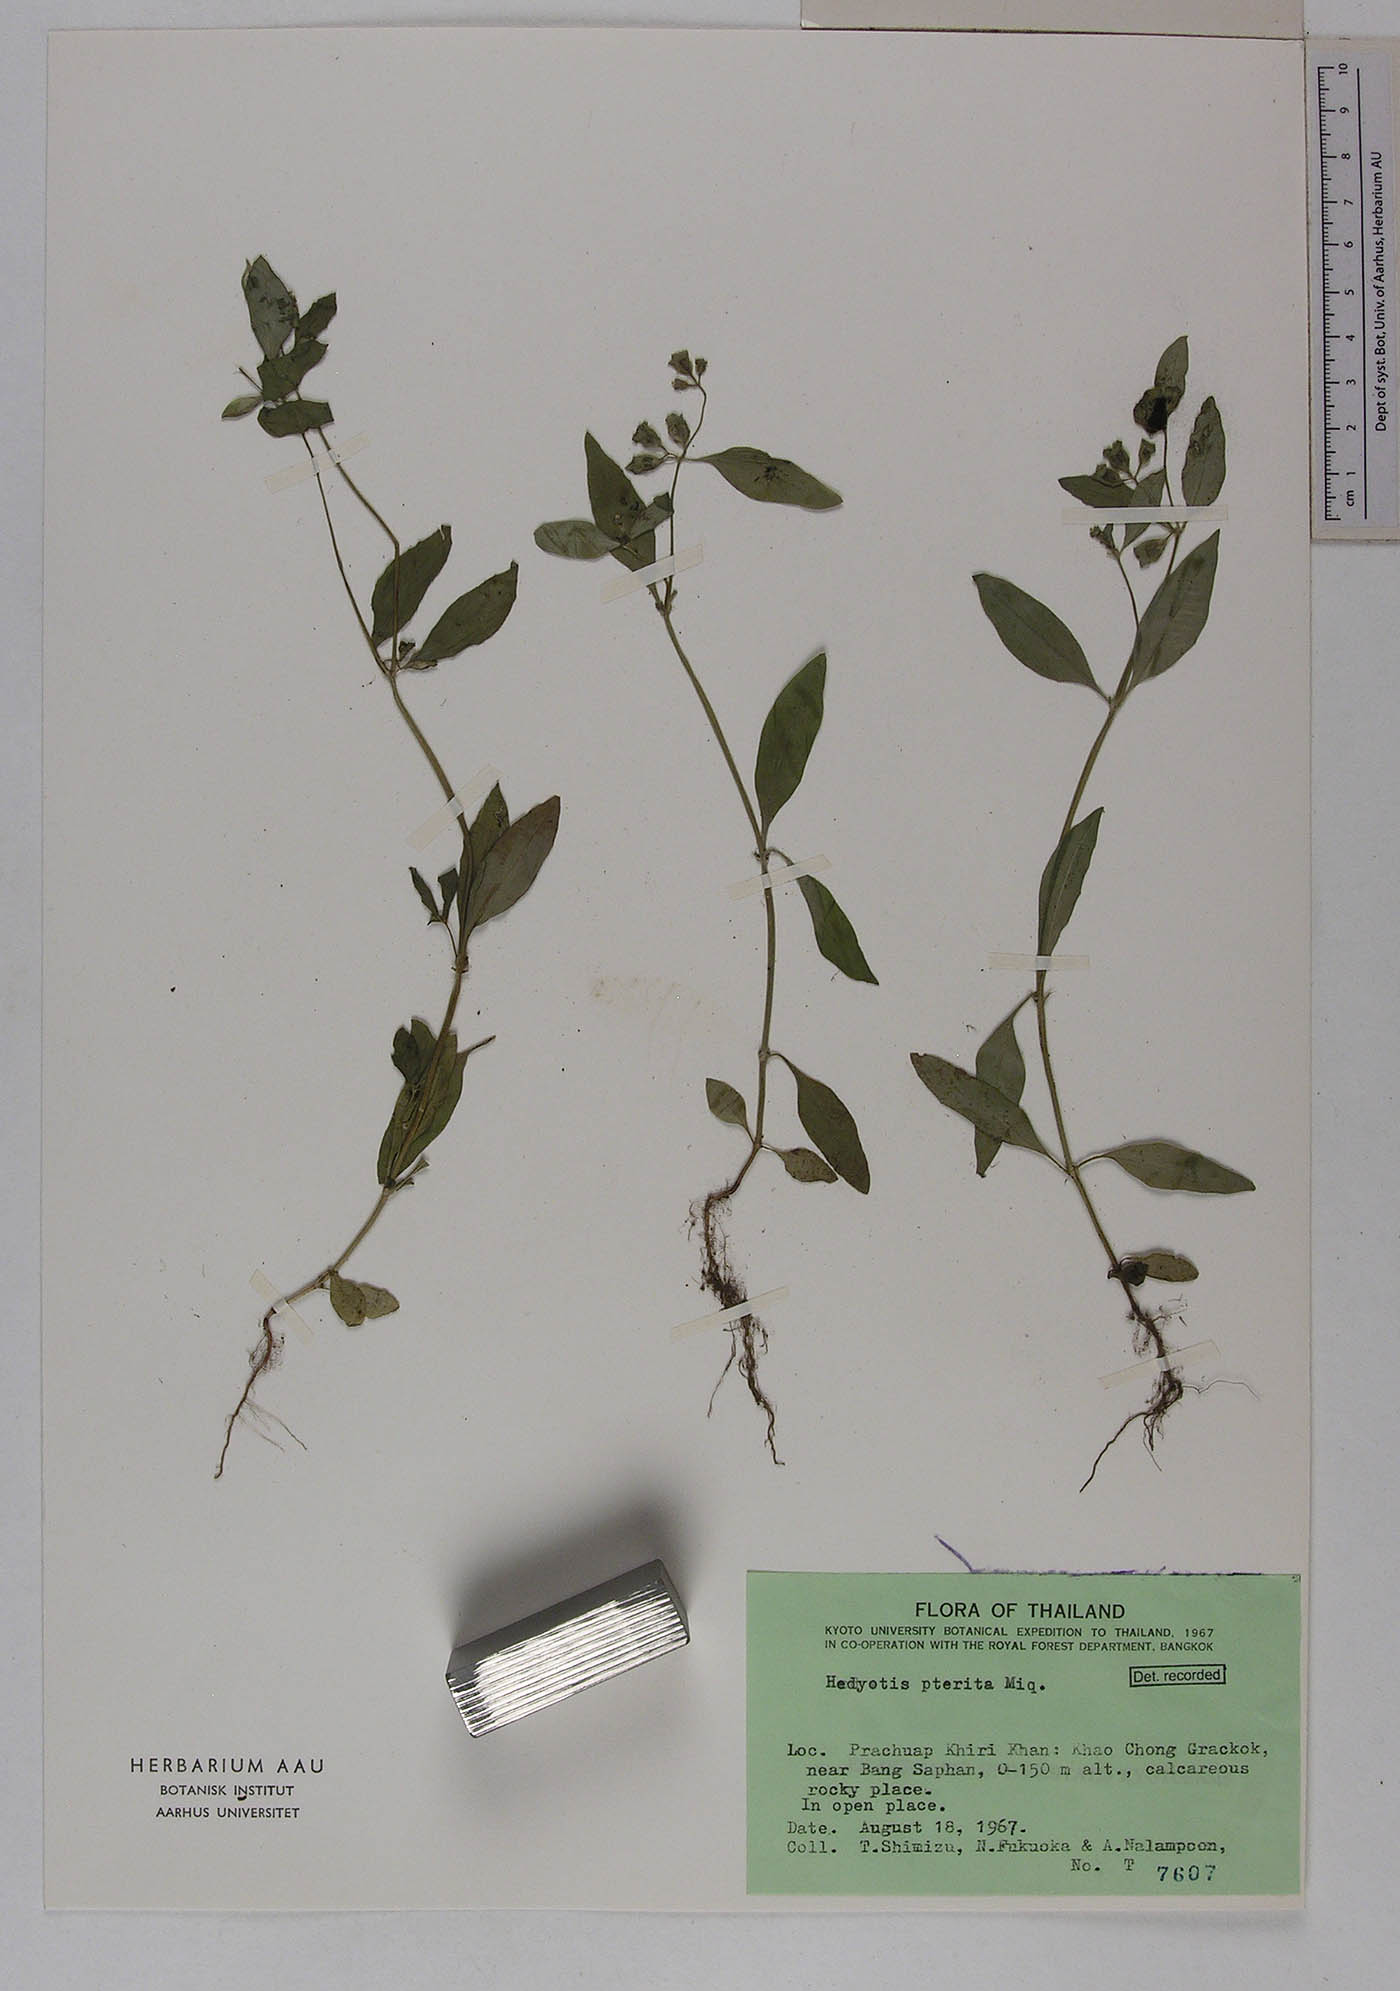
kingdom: Plantae
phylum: Tracheophyta
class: Magnoliopsida
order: Gentianales
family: Rubiaceae
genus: Leptopetalum
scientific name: Leptopetalum pteritum
